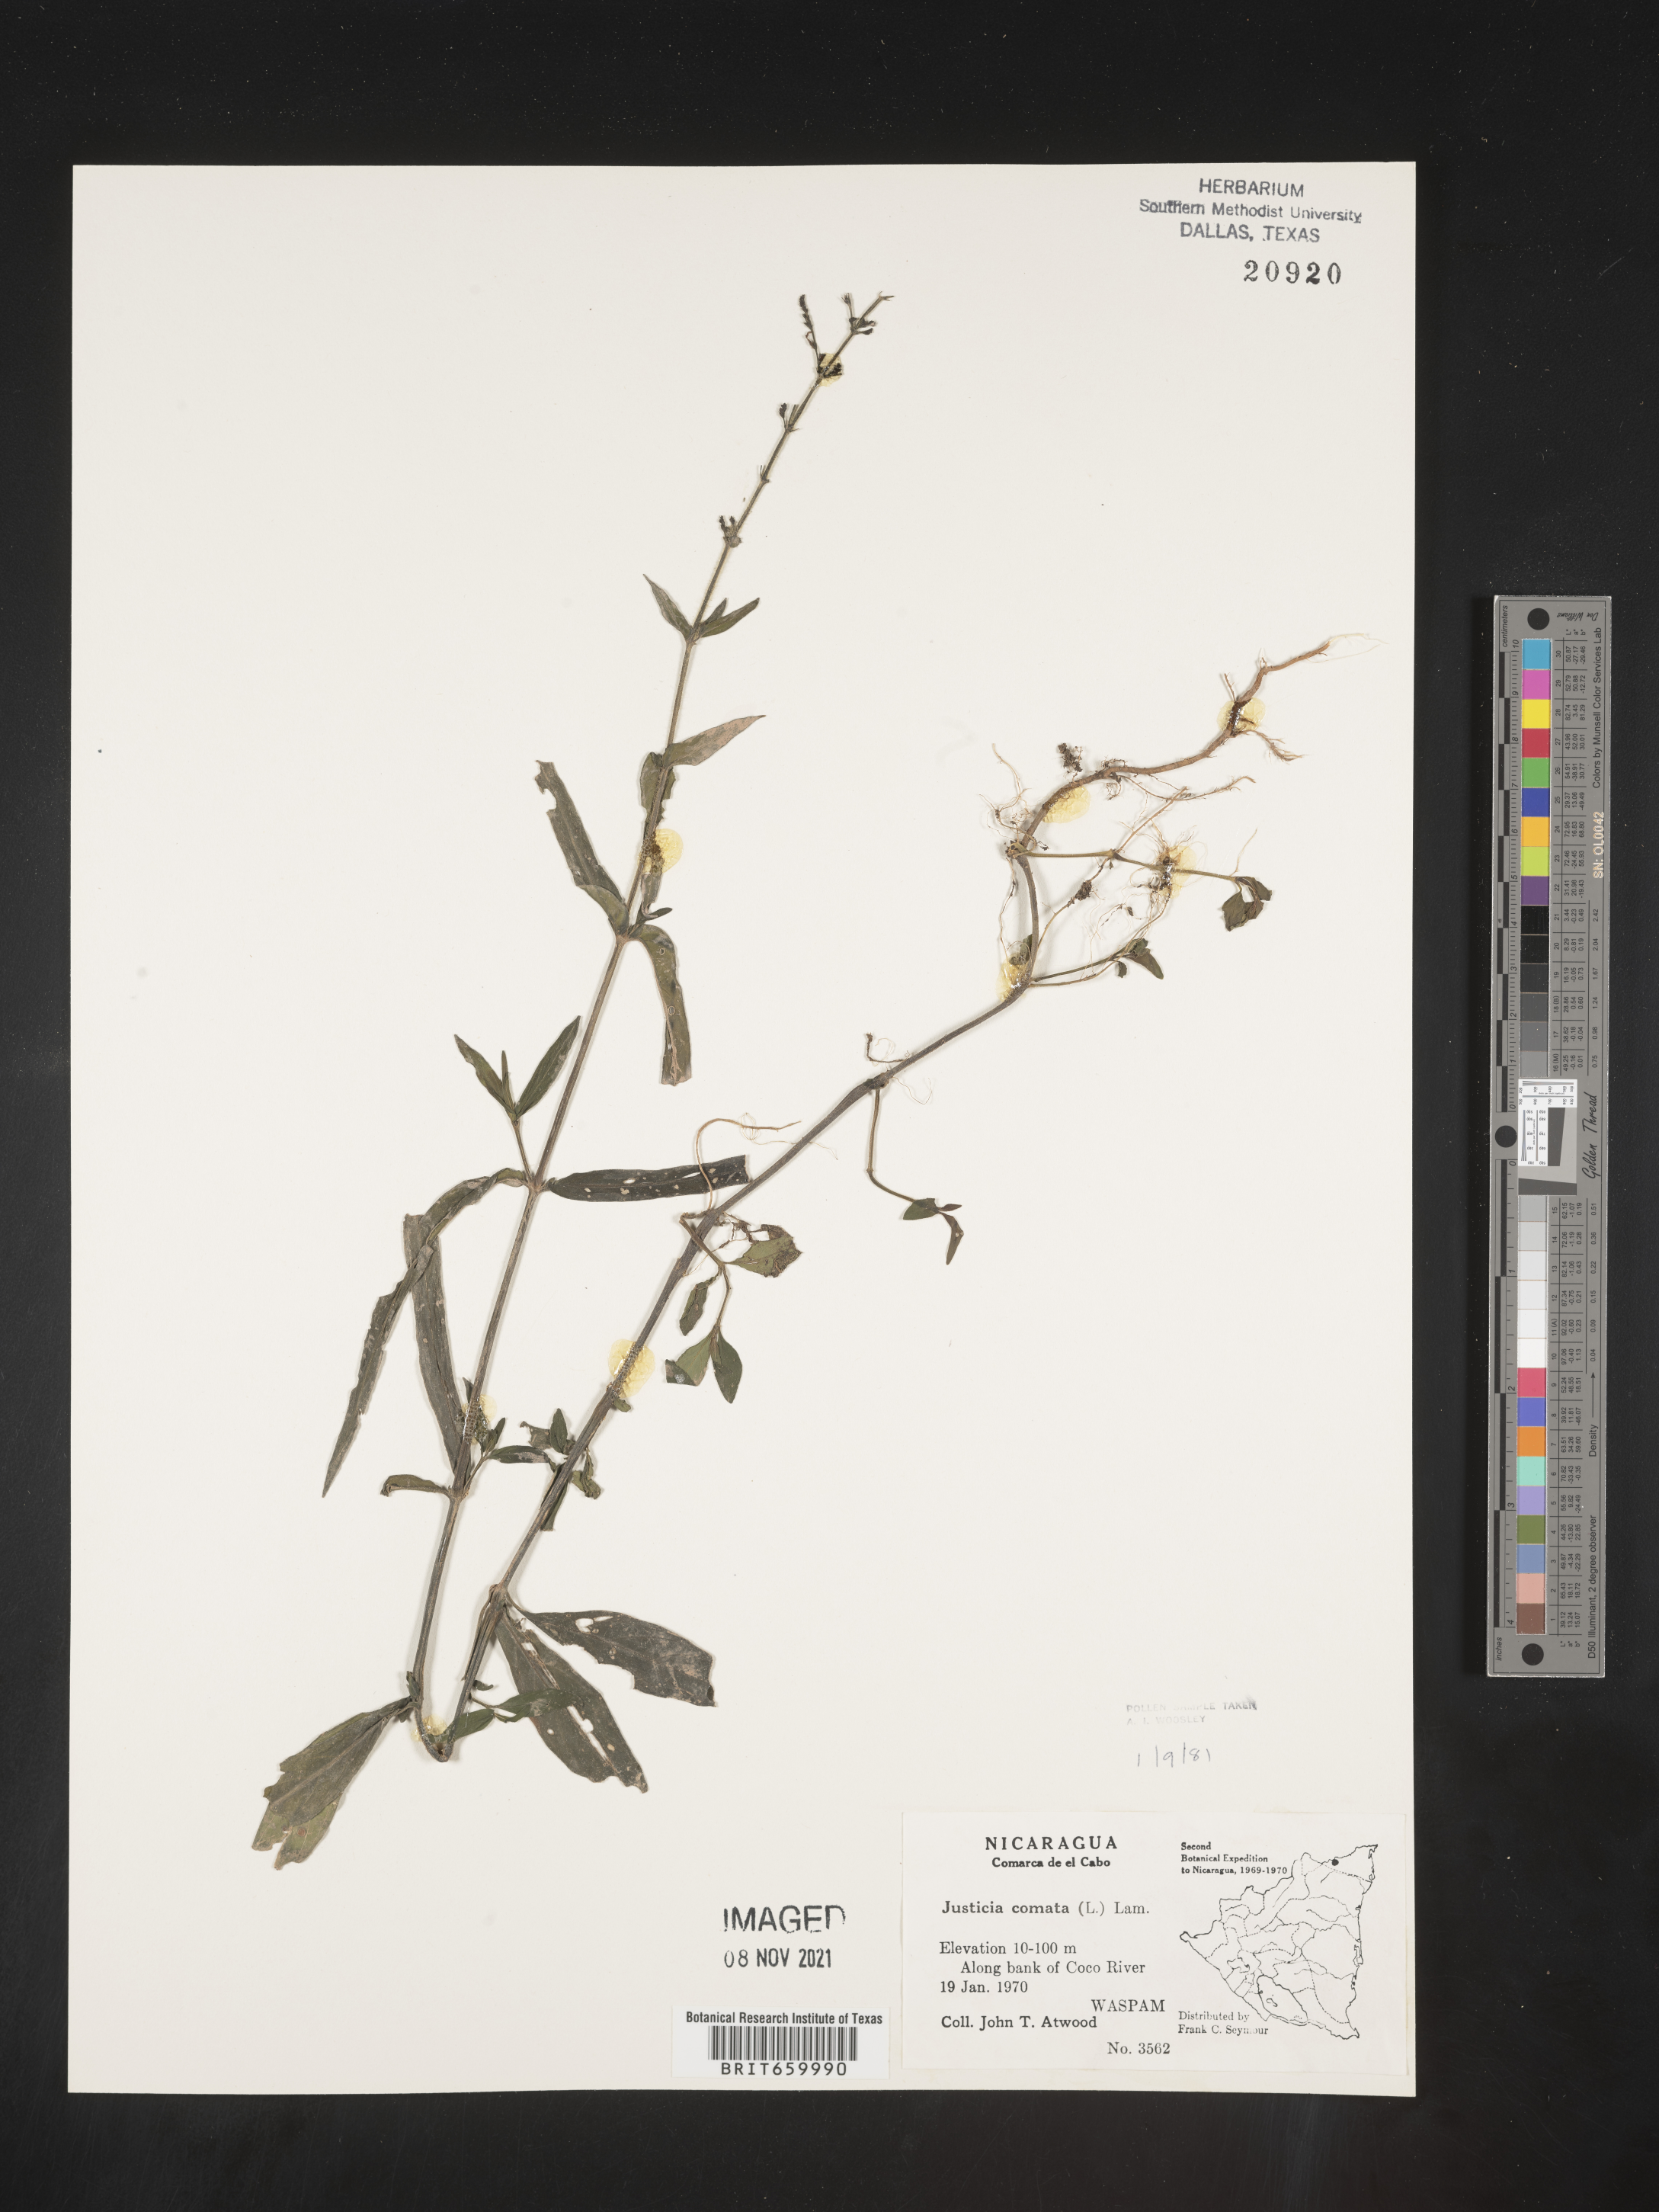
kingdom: Plantae
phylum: Tracheophyta
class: Magnoliopsida
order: Lamiales
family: Acanthaceae
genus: Justicia
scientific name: Justicia
